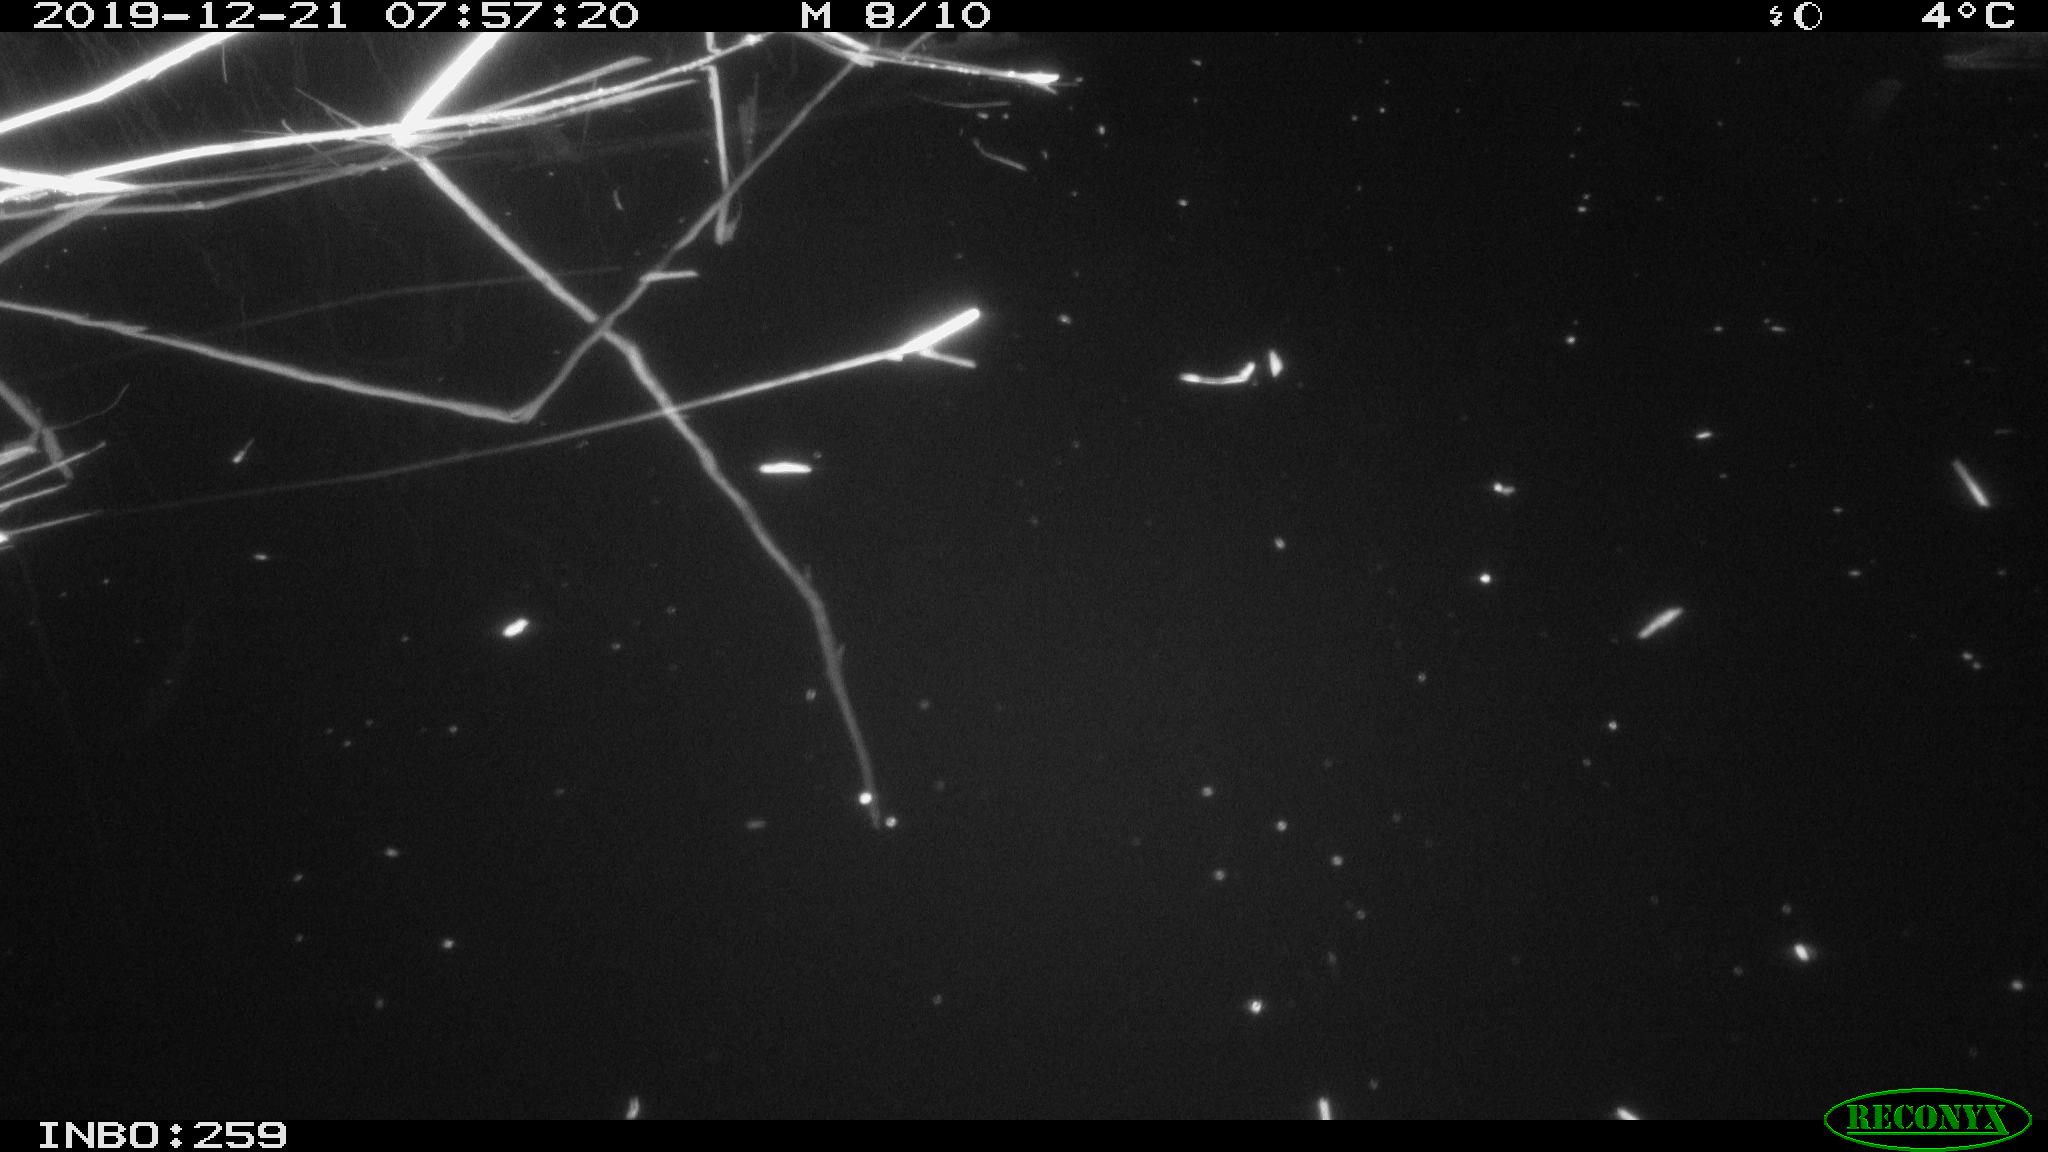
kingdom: Animalia
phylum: Chordata
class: Aves
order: Gruiformes
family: Rallidae
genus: Gallinula
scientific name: Gallinula chloropus
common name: Common moorhen
